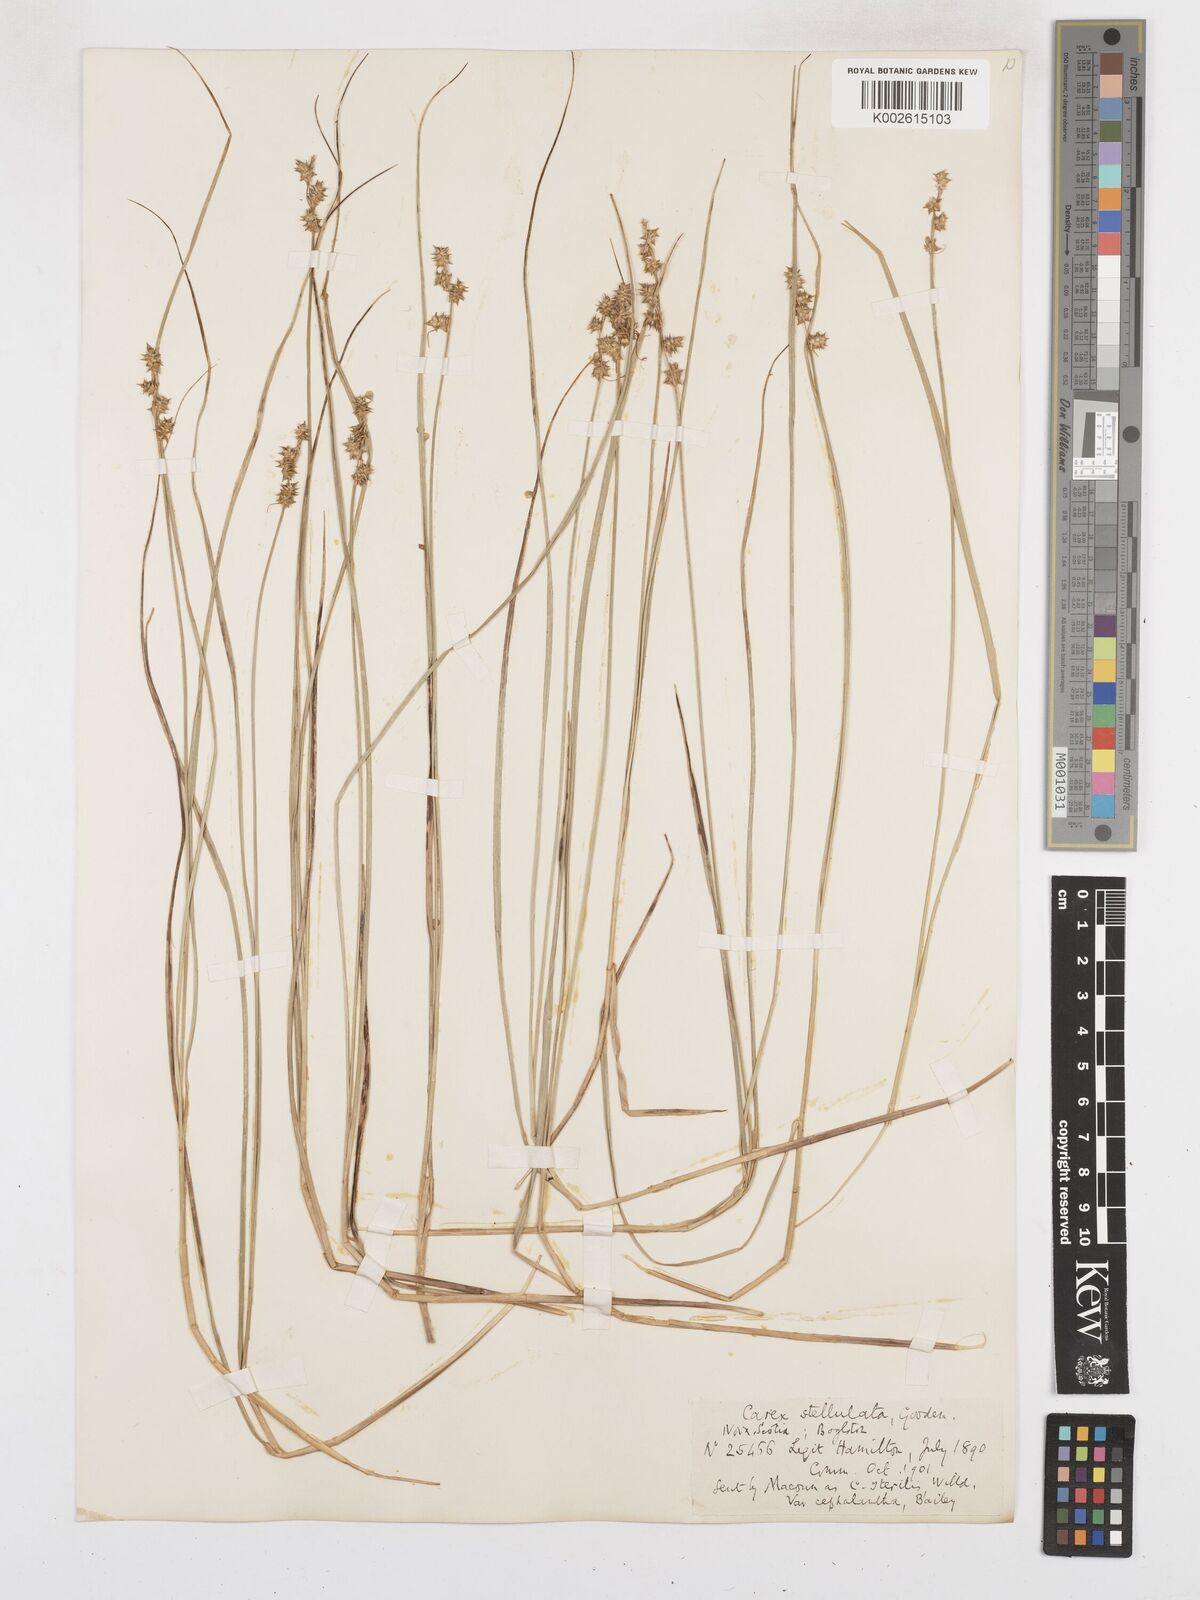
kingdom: Plantae
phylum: Tracheophyta
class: Liliopsida
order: Poales
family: Cyperaceae
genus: Carex
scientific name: Carex echinata
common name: Star sedge
